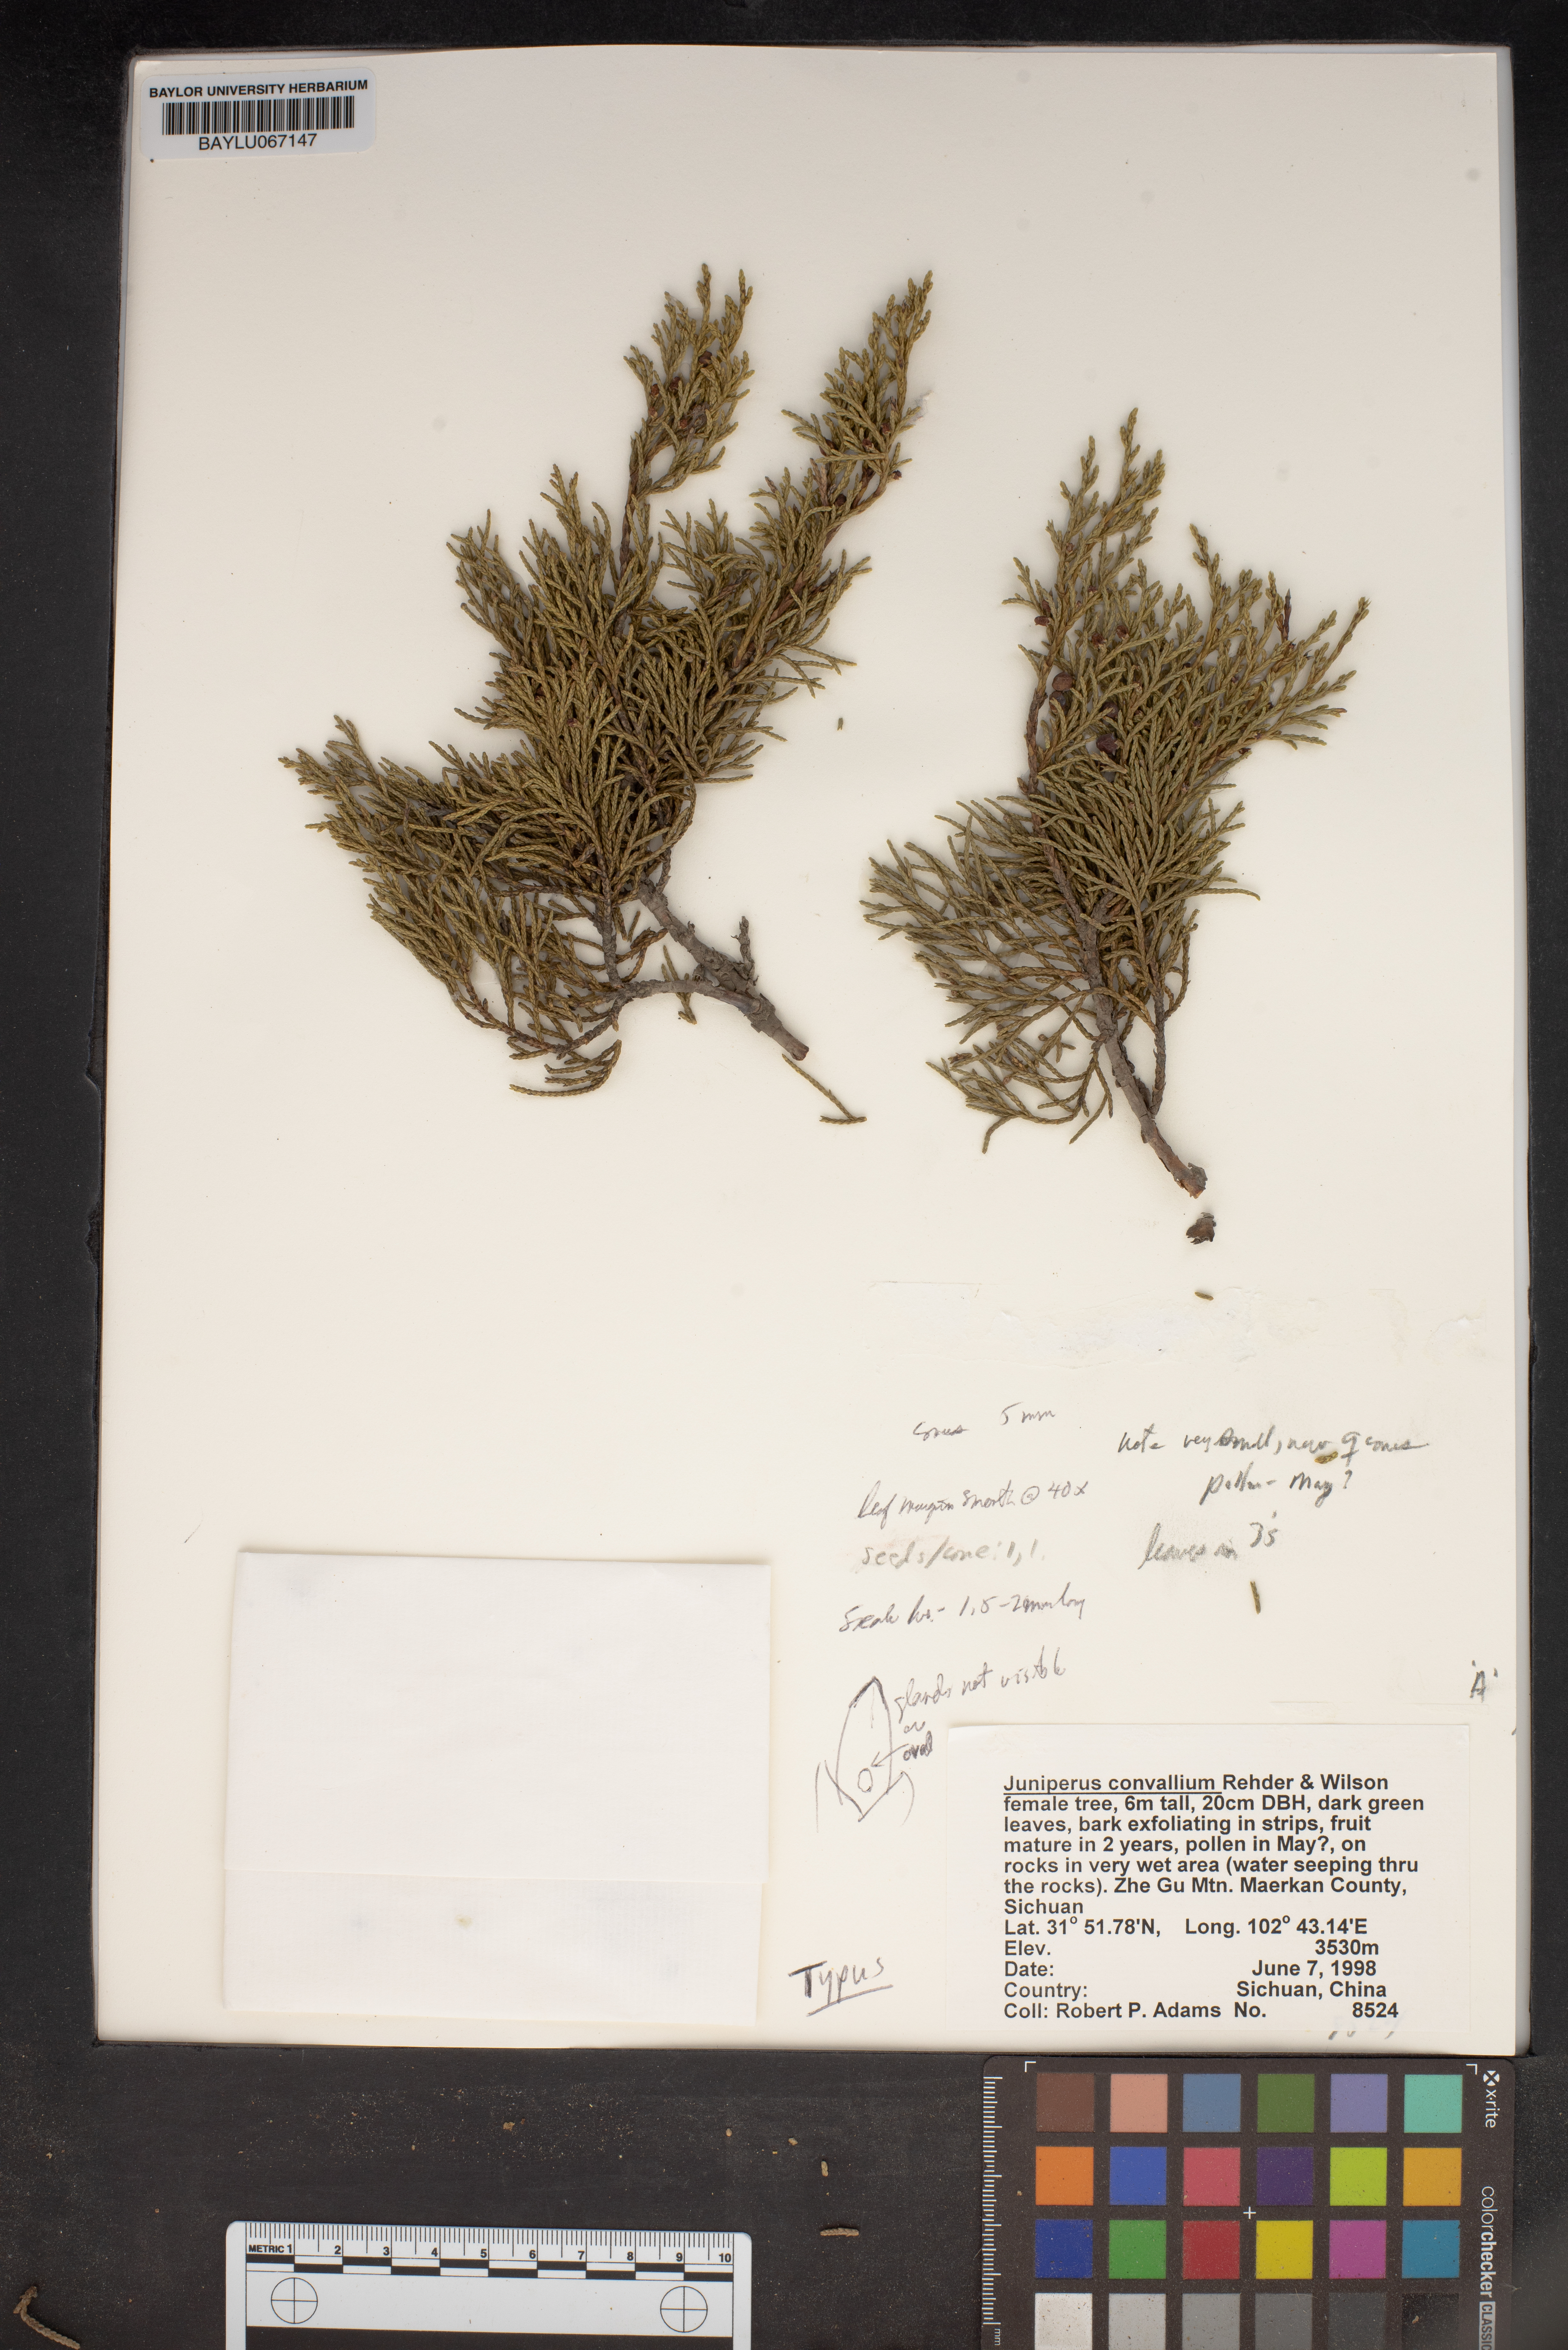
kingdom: Plantae
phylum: Tracheophyta
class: Pinopsida
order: Pinales
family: Cupressaceae
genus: Juniperus
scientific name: Juniperus convallium
